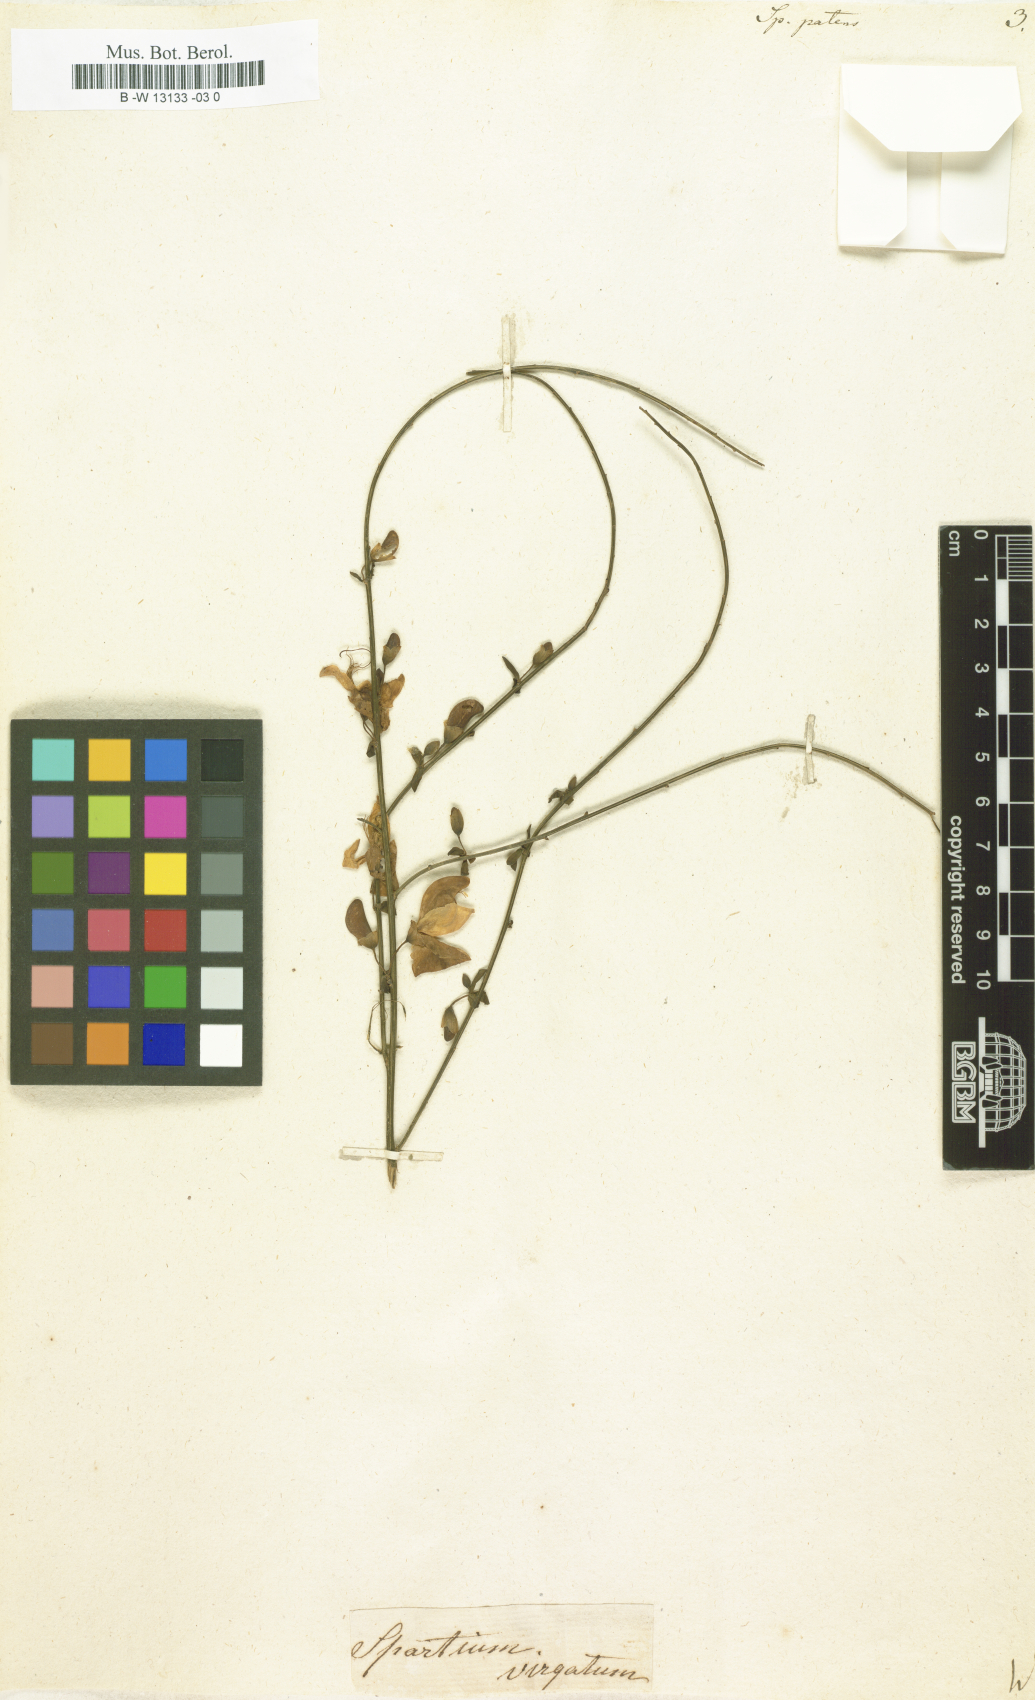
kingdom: Plantae
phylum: Tracheophyta
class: Magnoliopsida
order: Fabales
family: Fabaceae
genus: Cytisus
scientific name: Cytisus striatus
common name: Hairy-fruited broom
